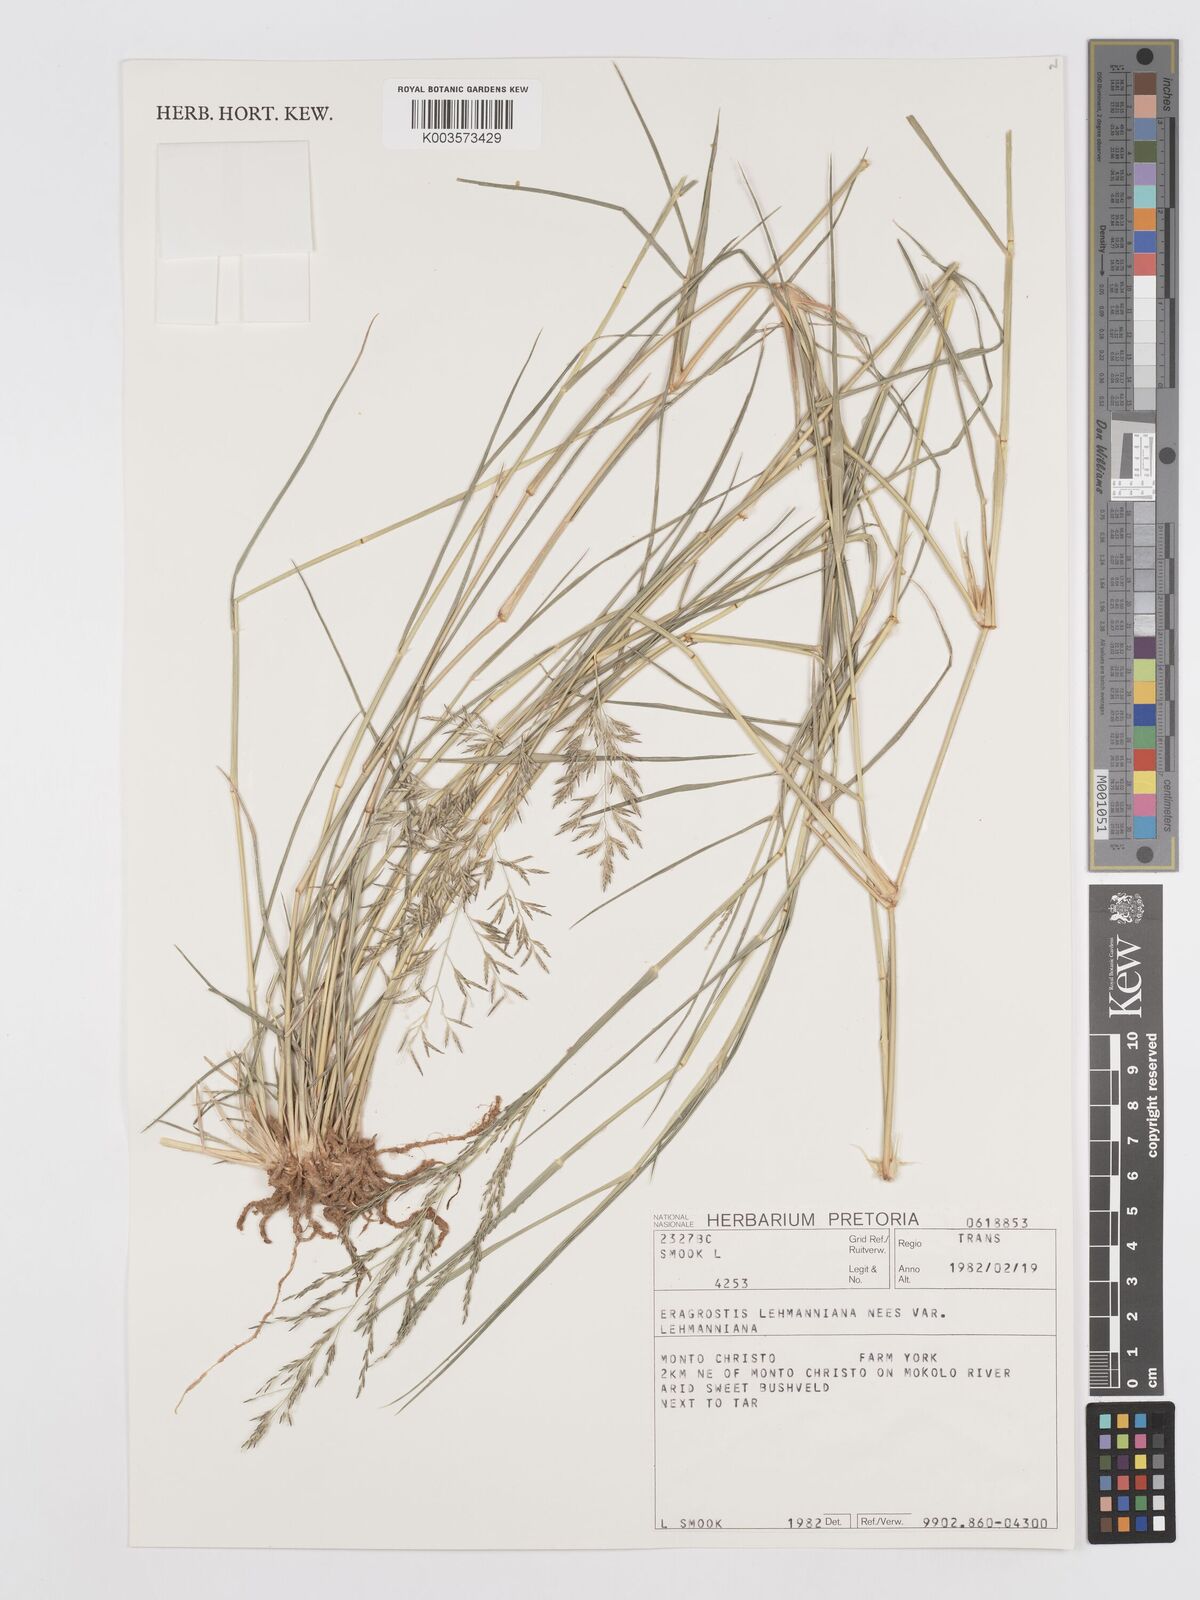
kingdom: Plantae
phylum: Tracheophyta
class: Liliopsida
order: Poales
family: Poaceae
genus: Eragrostis
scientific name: Eragrostis lehmanniana
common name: Lehmann lovegrass
